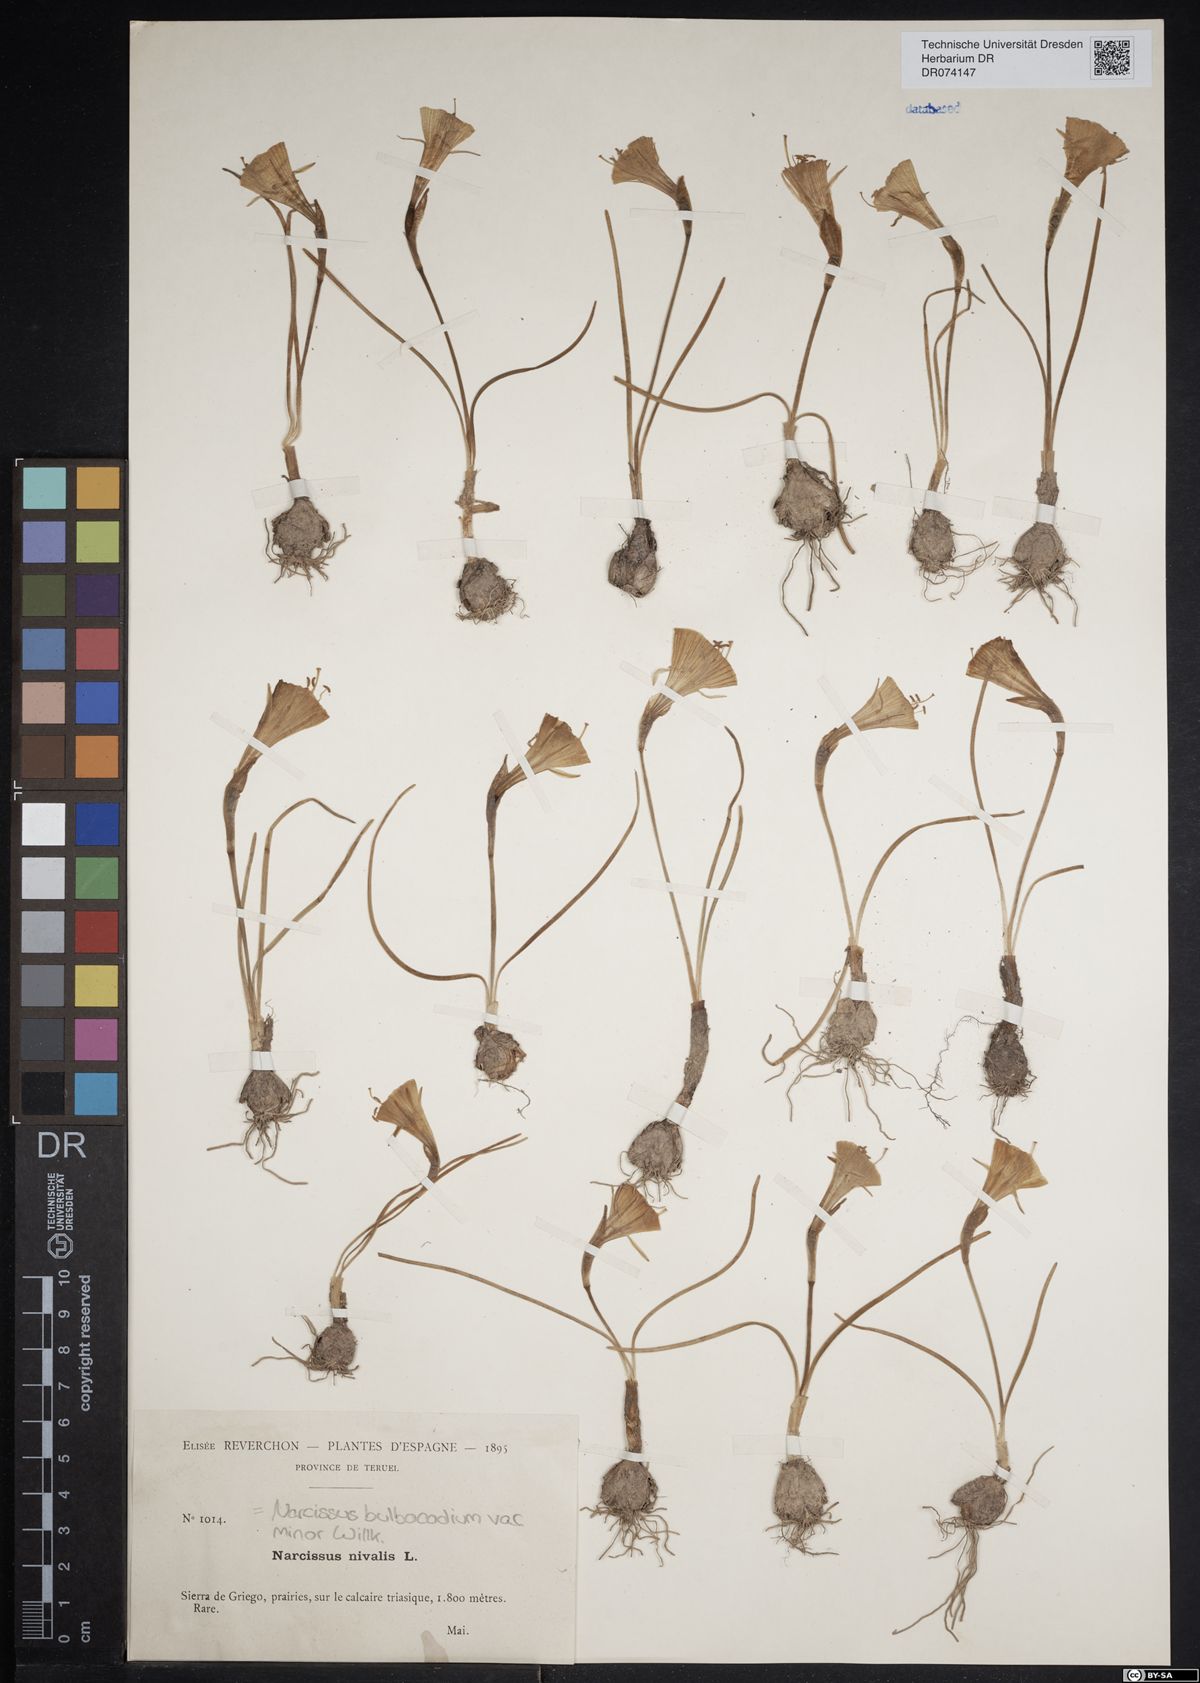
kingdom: Plantae
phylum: Tracheophyta
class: Liliopsida
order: Asparagales
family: Amaryllidaceae
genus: Narcissus
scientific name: Narcissus bulbocodium
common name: Hoop-petticoat daffodil
